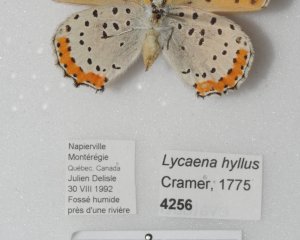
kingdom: Animalia
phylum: Arthropoda
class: Insecta
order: Lepidoptera
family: Sesiidae
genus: Sesia
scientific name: Sesia Lycaena hyllus
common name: Bronze Copper
